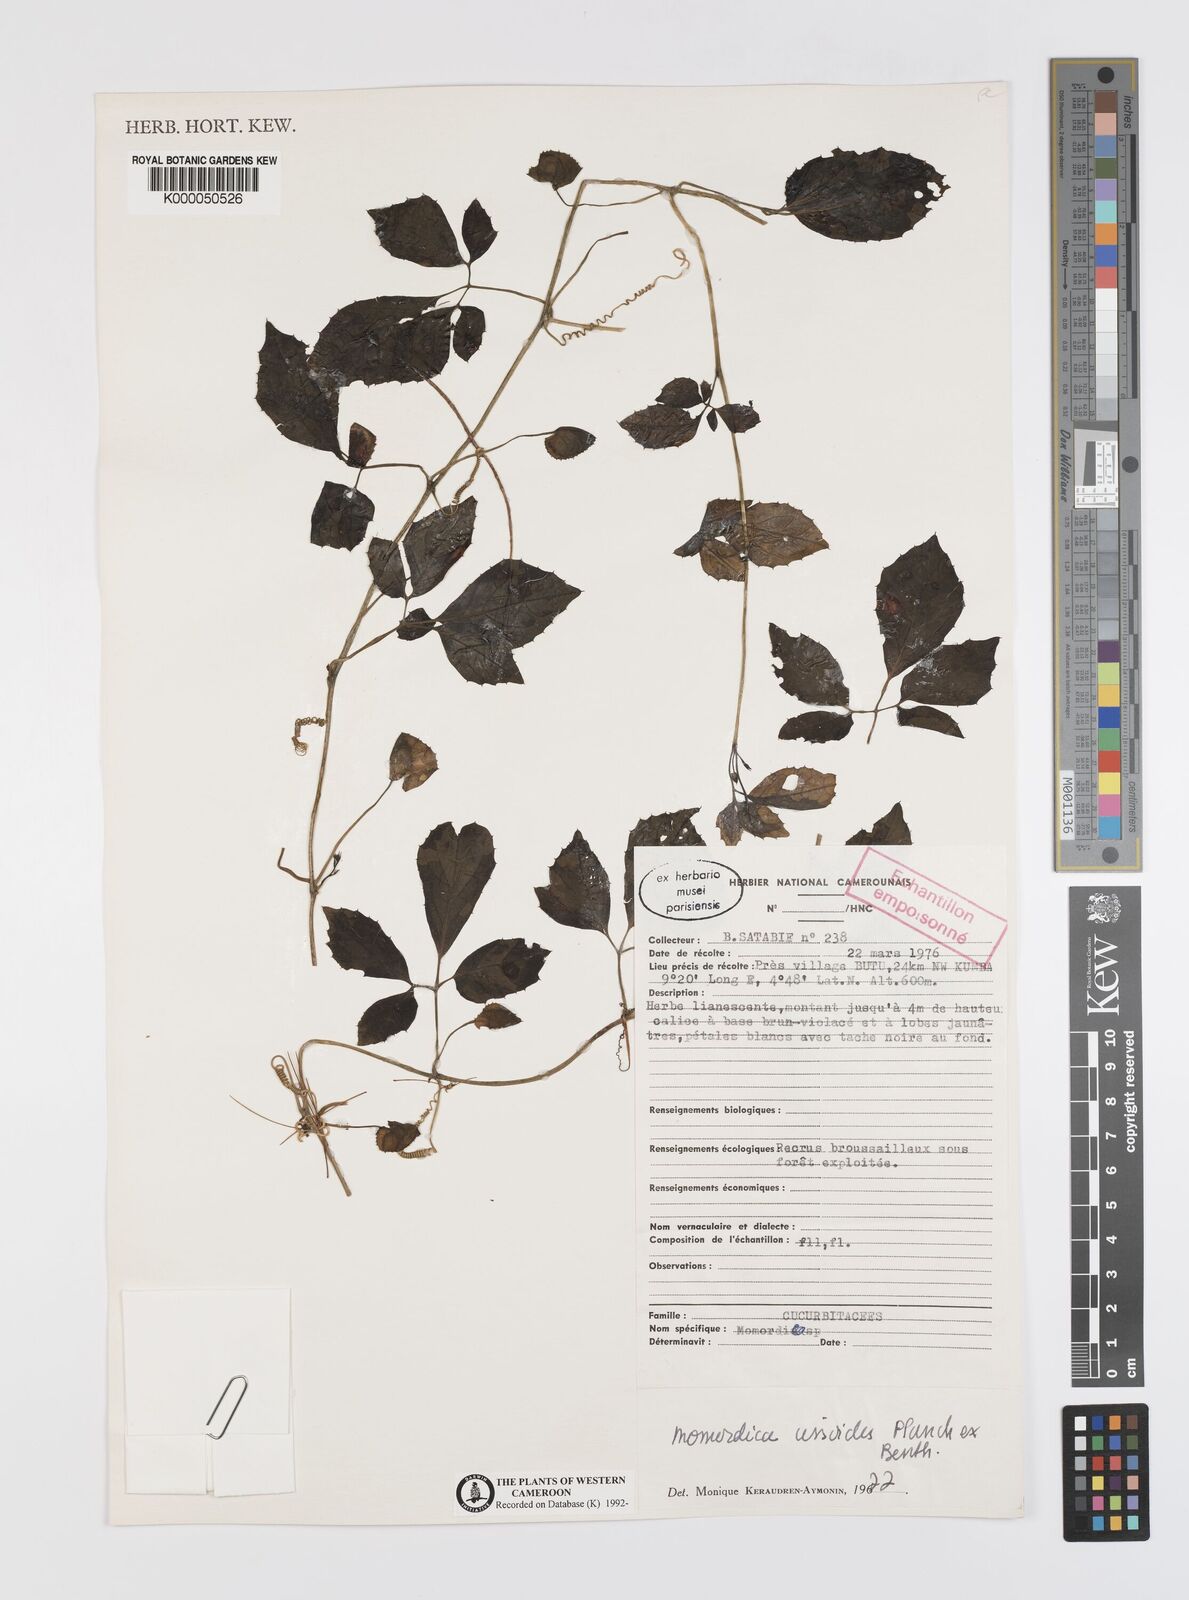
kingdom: Plantae
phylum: Tracheophyta
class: Magnoliopsida
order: Cucurbitales
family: Cucurbitaceae
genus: Momordica
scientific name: Momordica cissoides
